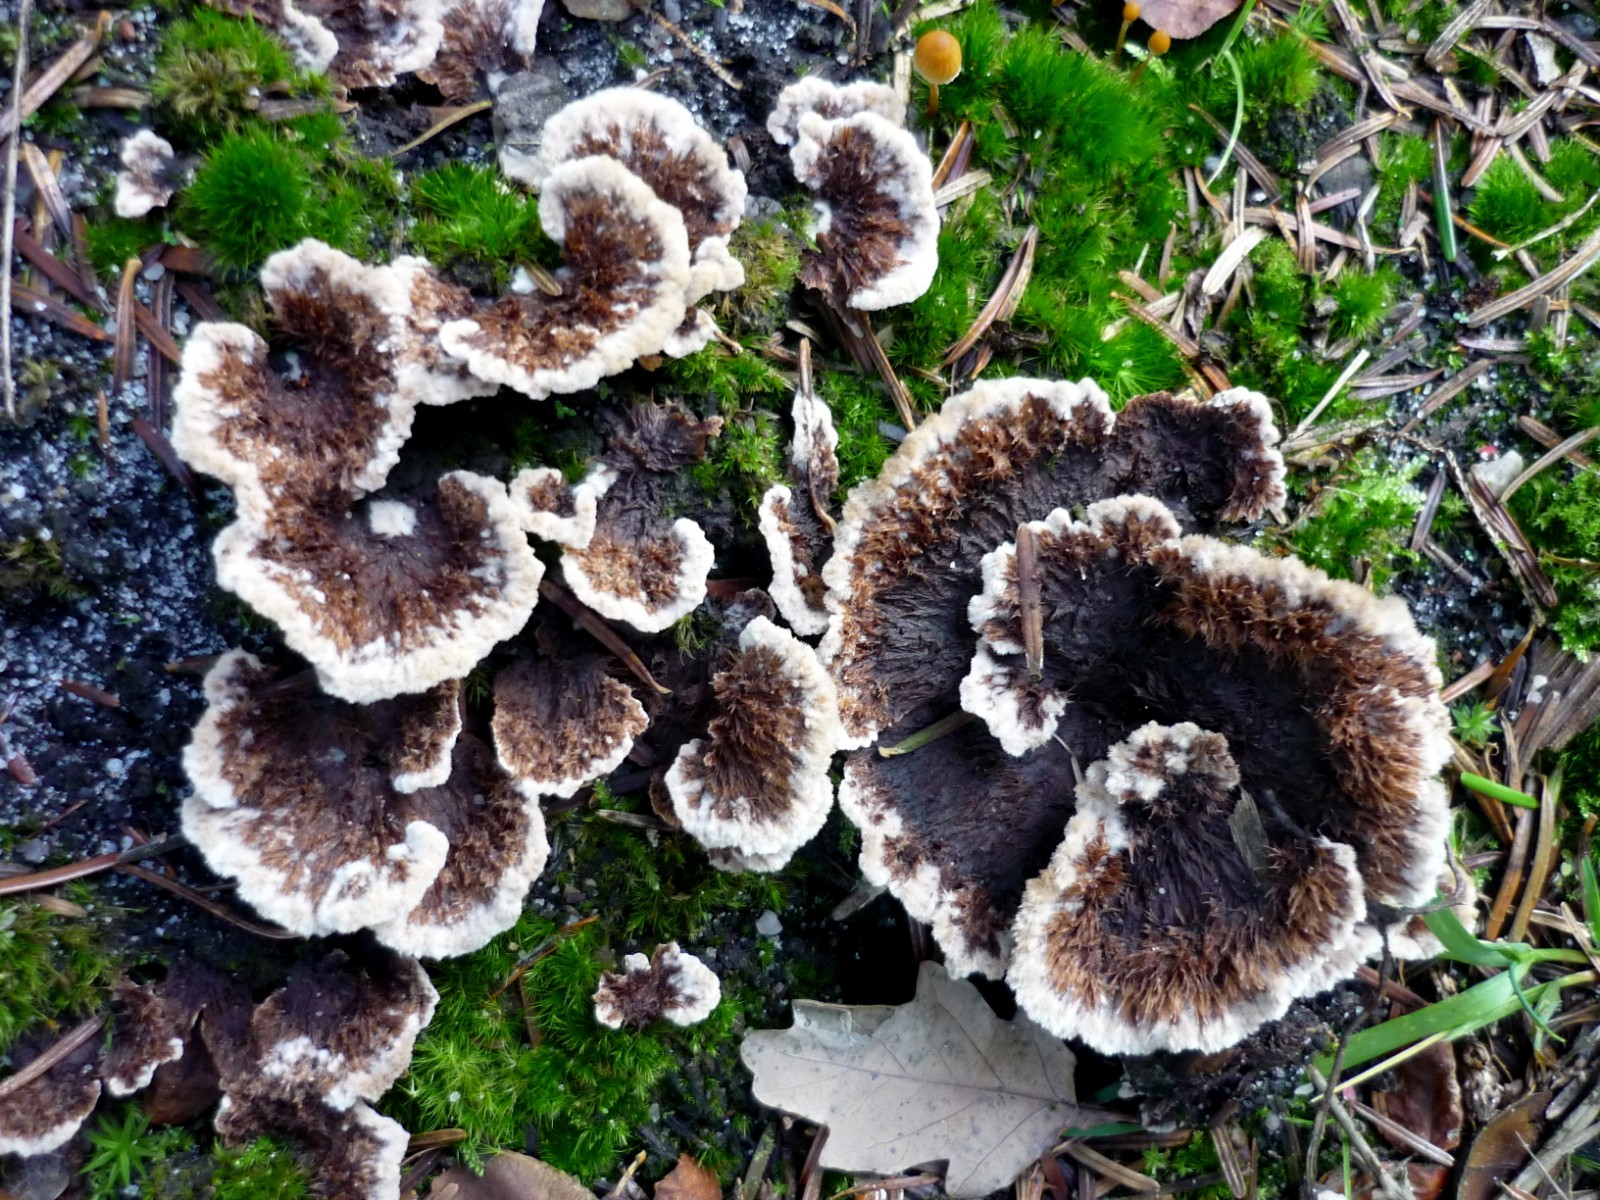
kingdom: Fungi
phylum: Basidiomycota
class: Agaricomycetes
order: Thelephorales
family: Thelephoraceae
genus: Thelephora
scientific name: Thelephora terrestris
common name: fliget frynsesvamp
